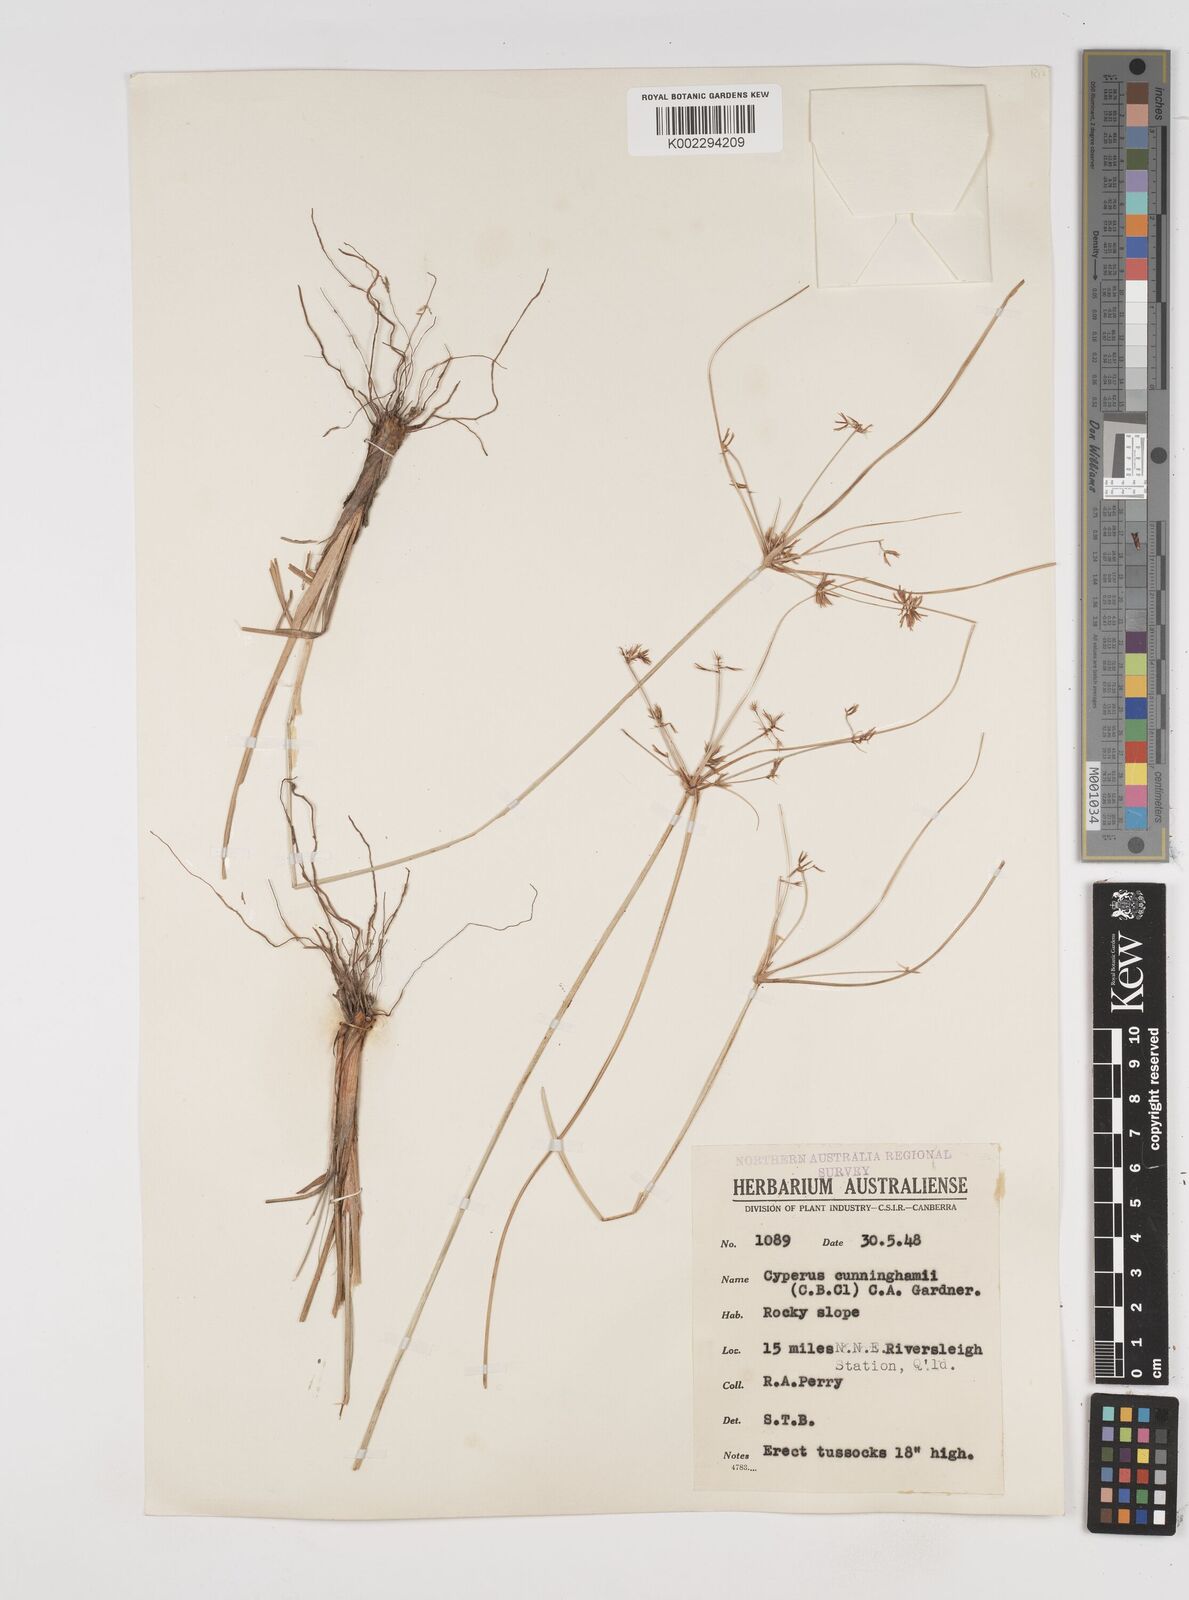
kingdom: Plantae
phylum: Tracheophyta
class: Liliopsida
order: Poales
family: Cyperaceae
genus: Cyperus
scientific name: Cyperus cunninghamii
